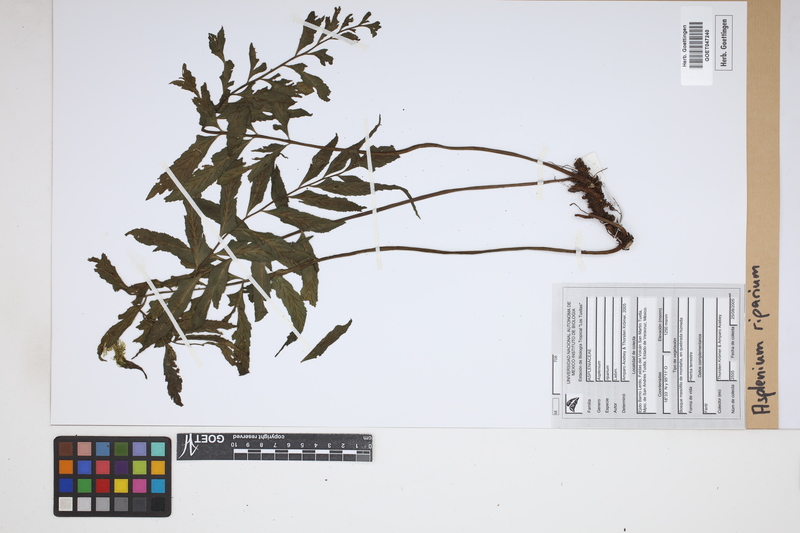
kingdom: Plantae
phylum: Tracheophyta
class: Polypodiopsida
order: Polypodiales
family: Aspleniaceae
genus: Hymenasplenium
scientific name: Hymenasplenium riparium
